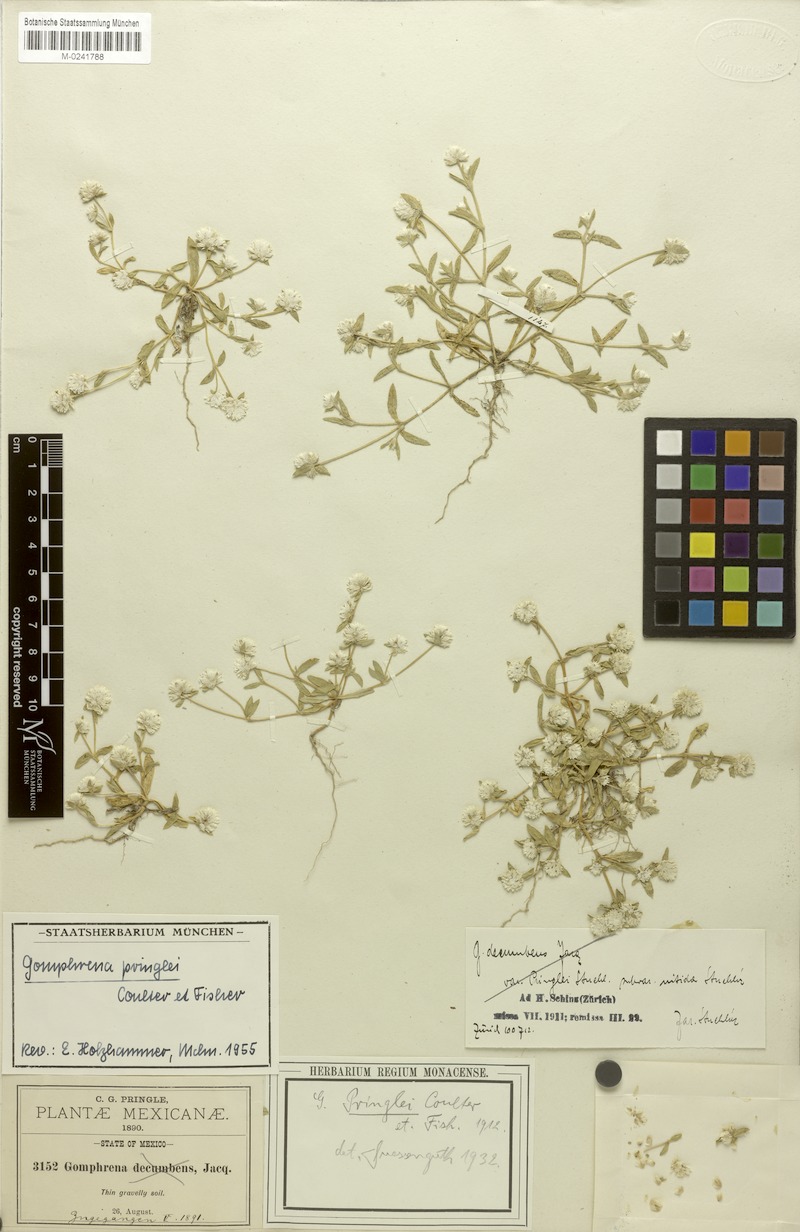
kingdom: Plantae
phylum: Tracheophyta
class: Magnoliopsida
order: Caryophyllales
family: Amaranthaceae
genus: Gomphrena
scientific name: Gomphrena pringlei
